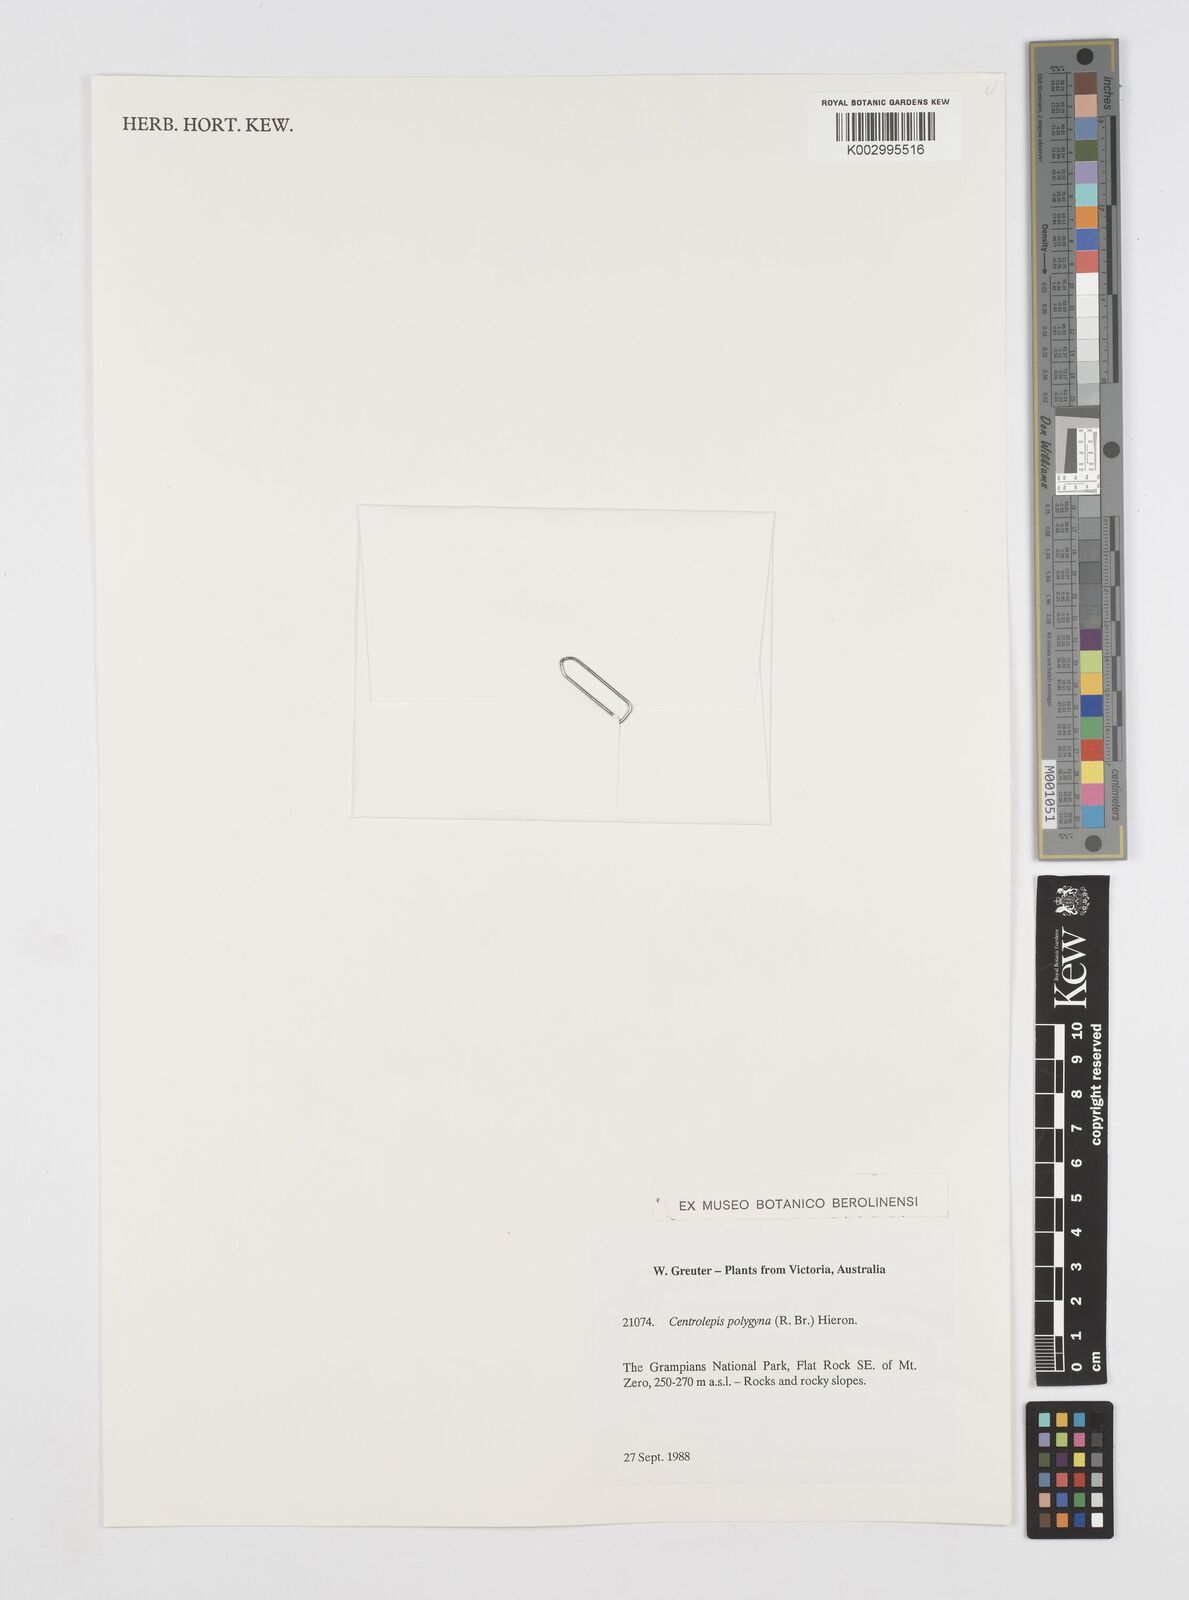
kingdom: Plantae
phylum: Tracheophyta
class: Liliopsida
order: Poales
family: Restionaceae
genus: Centrolepis
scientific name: Centrolepis polygyna
